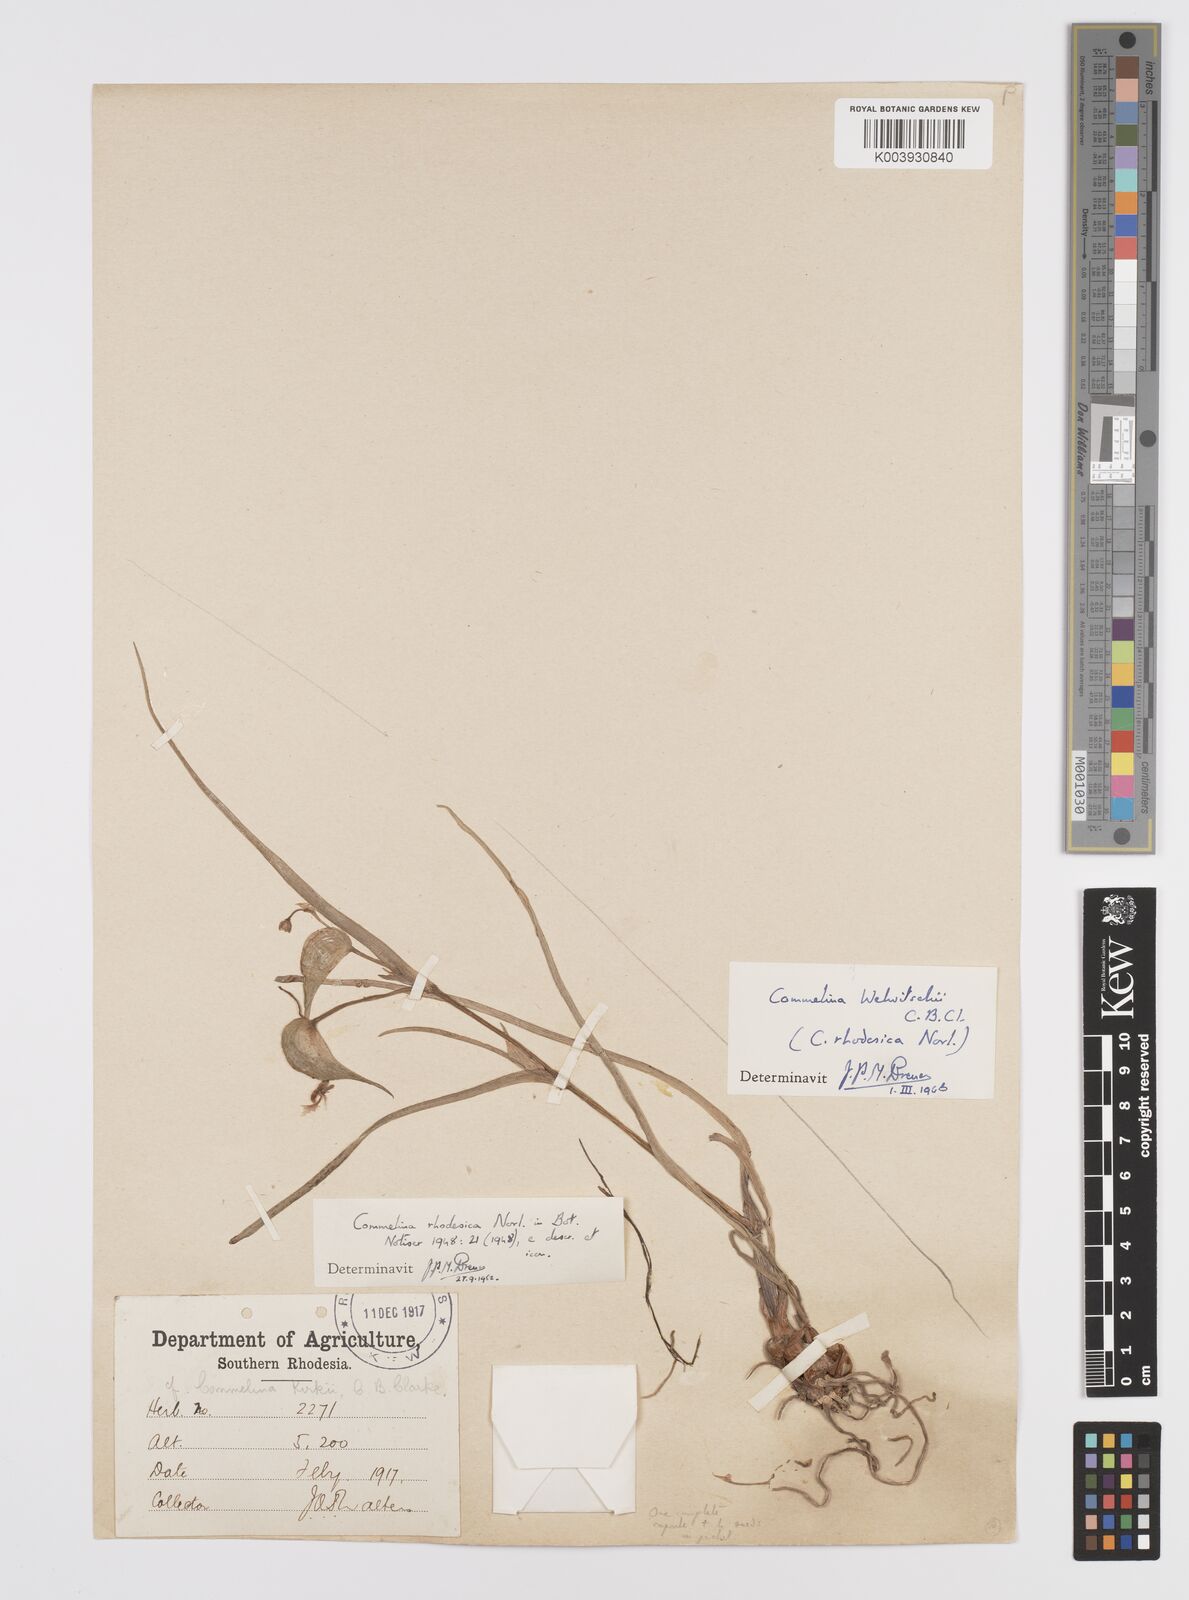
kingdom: Plantae
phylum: Tracheophyta
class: Liliopsida
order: Commelinales
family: Commelinaceae
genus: Commelina
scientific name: Commelina welwitschii
